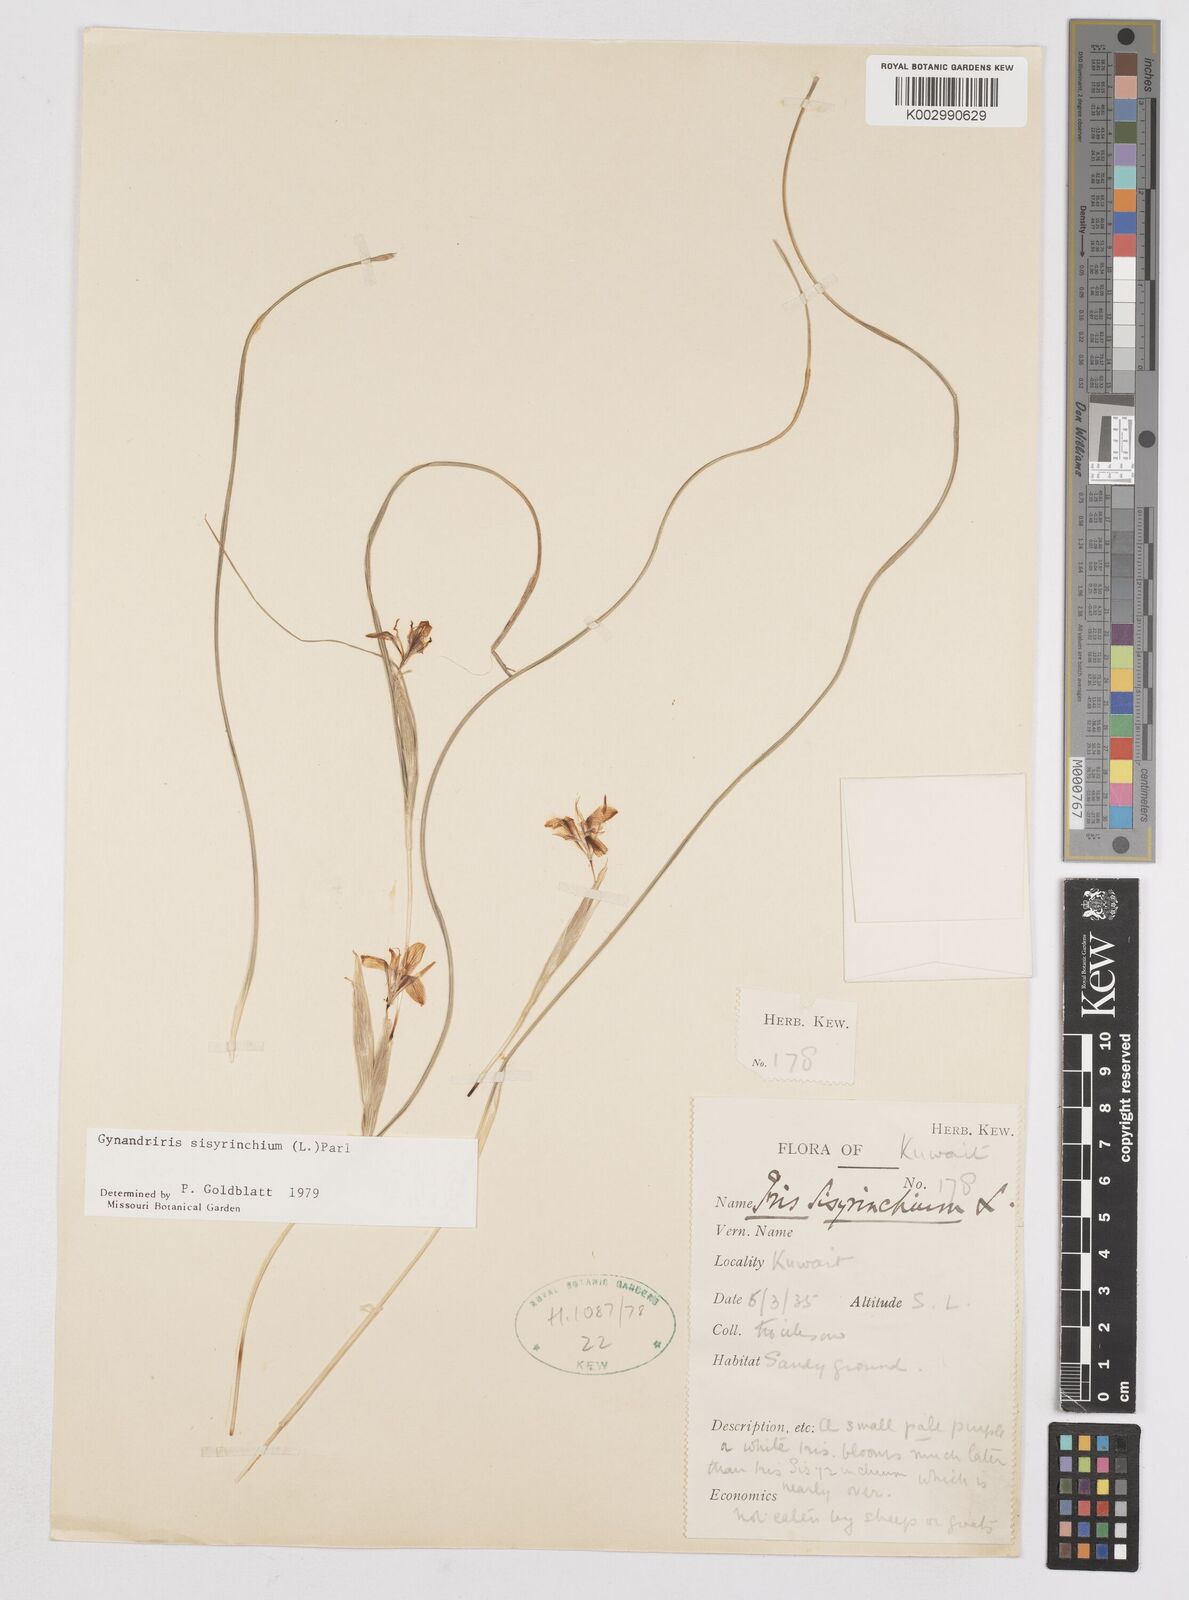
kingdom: Plantae
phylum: Tracheophyta
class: Liliopsida
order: Asparagales
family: Iridaceae
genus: Moraea
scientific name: Moraea sisyrinchium
